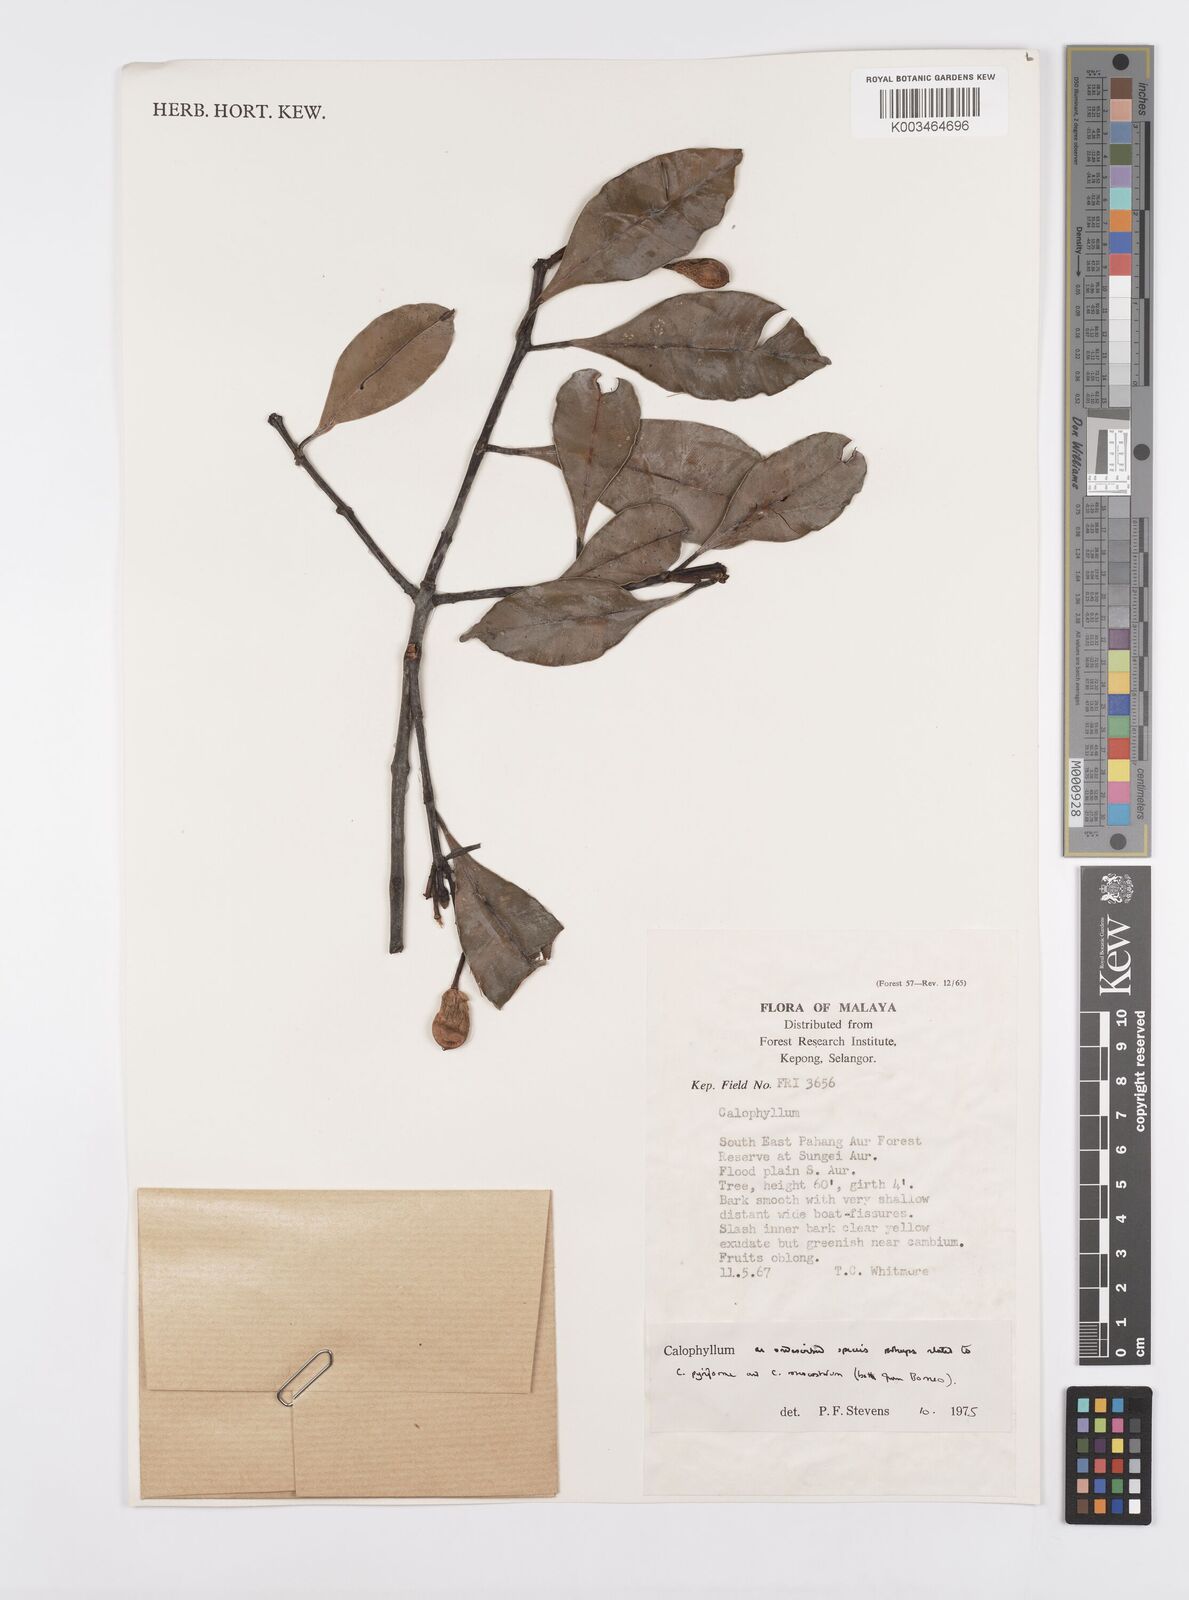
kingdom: Plantae
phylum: Tracheophyta
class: Magnoliopsida
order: Malpighiales
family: Calophyllaceae
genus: Calophyllum
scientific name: Calophyllum
